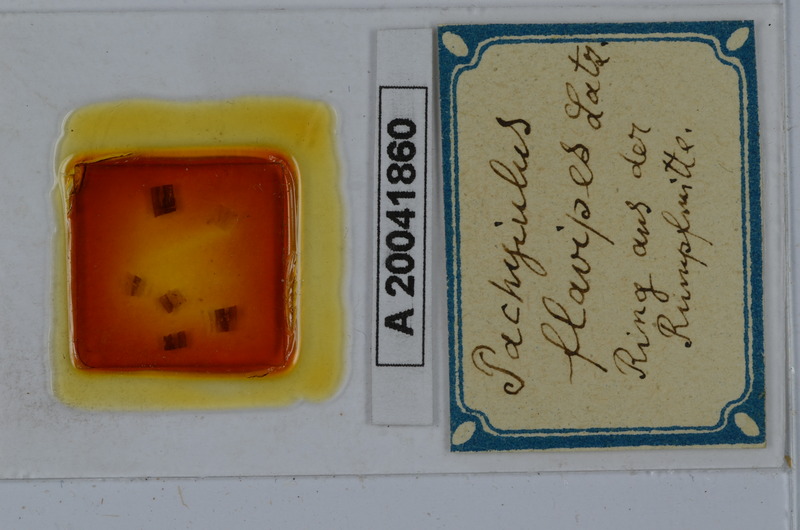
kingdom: Animalia
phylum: Arthropoda
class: Diplopoda
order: Julida
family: Julidae
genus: Pachyiulus
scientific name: Pachyiulus flavipes
